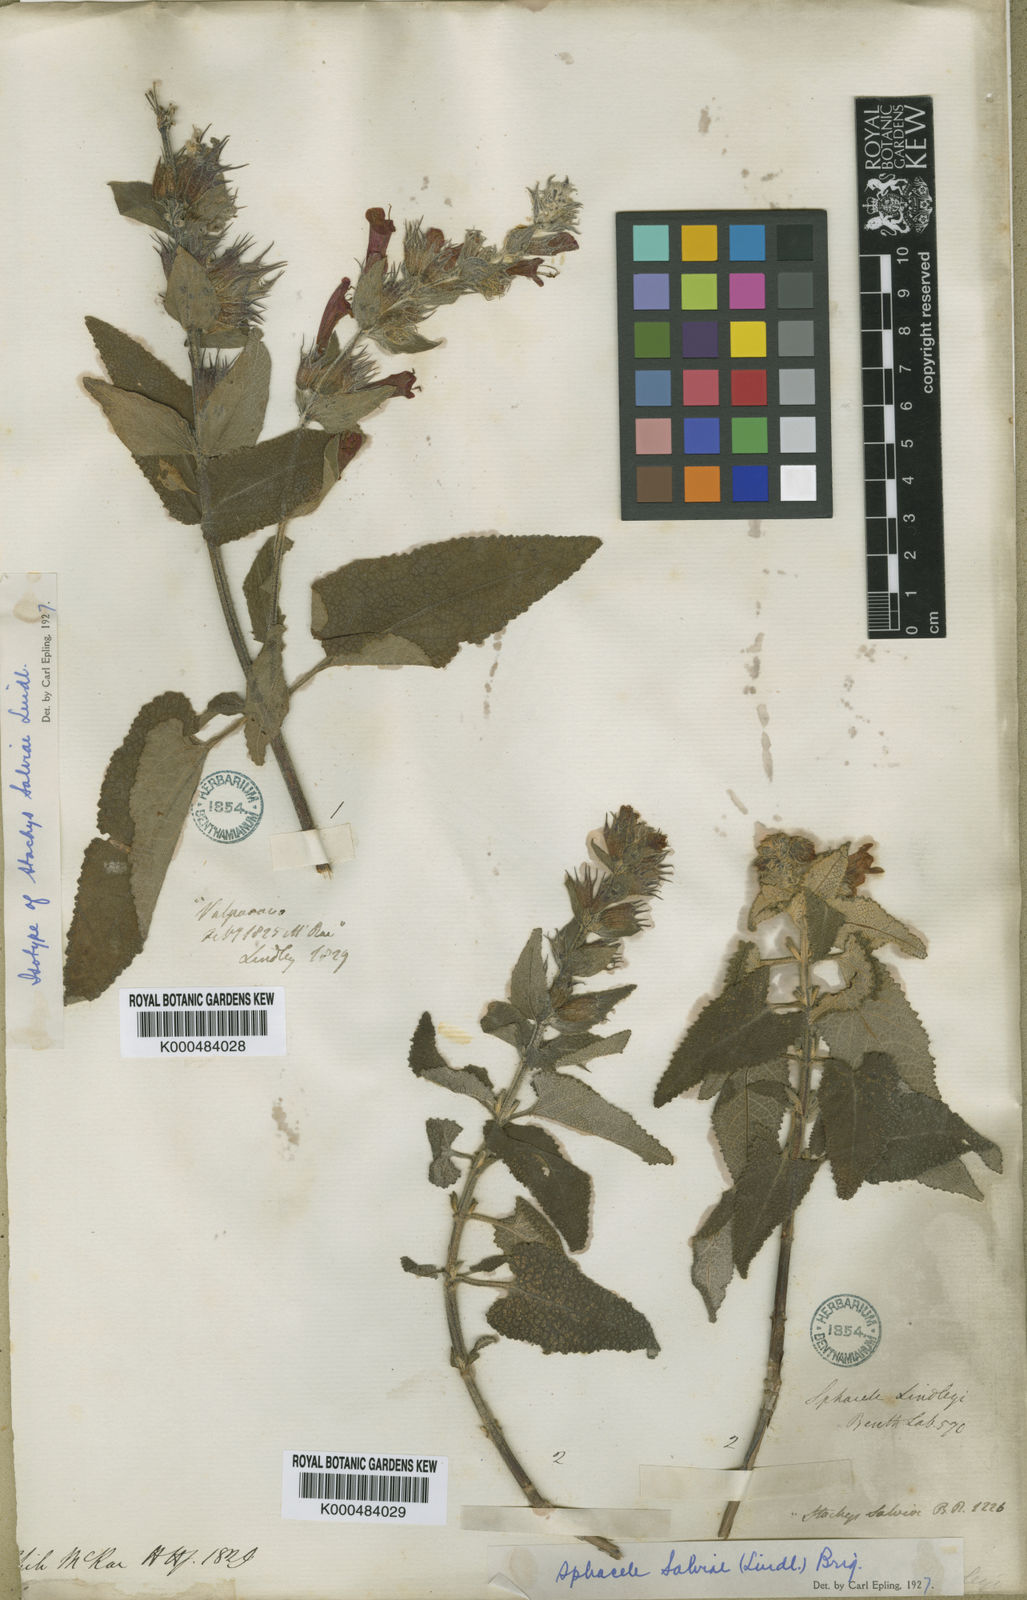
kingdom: Plantae
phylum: Tracheophyta
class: Magnoliopsida
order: Lamiales
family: Lamiaceae
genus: Lepechinia
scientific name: Lepechinia salviae
